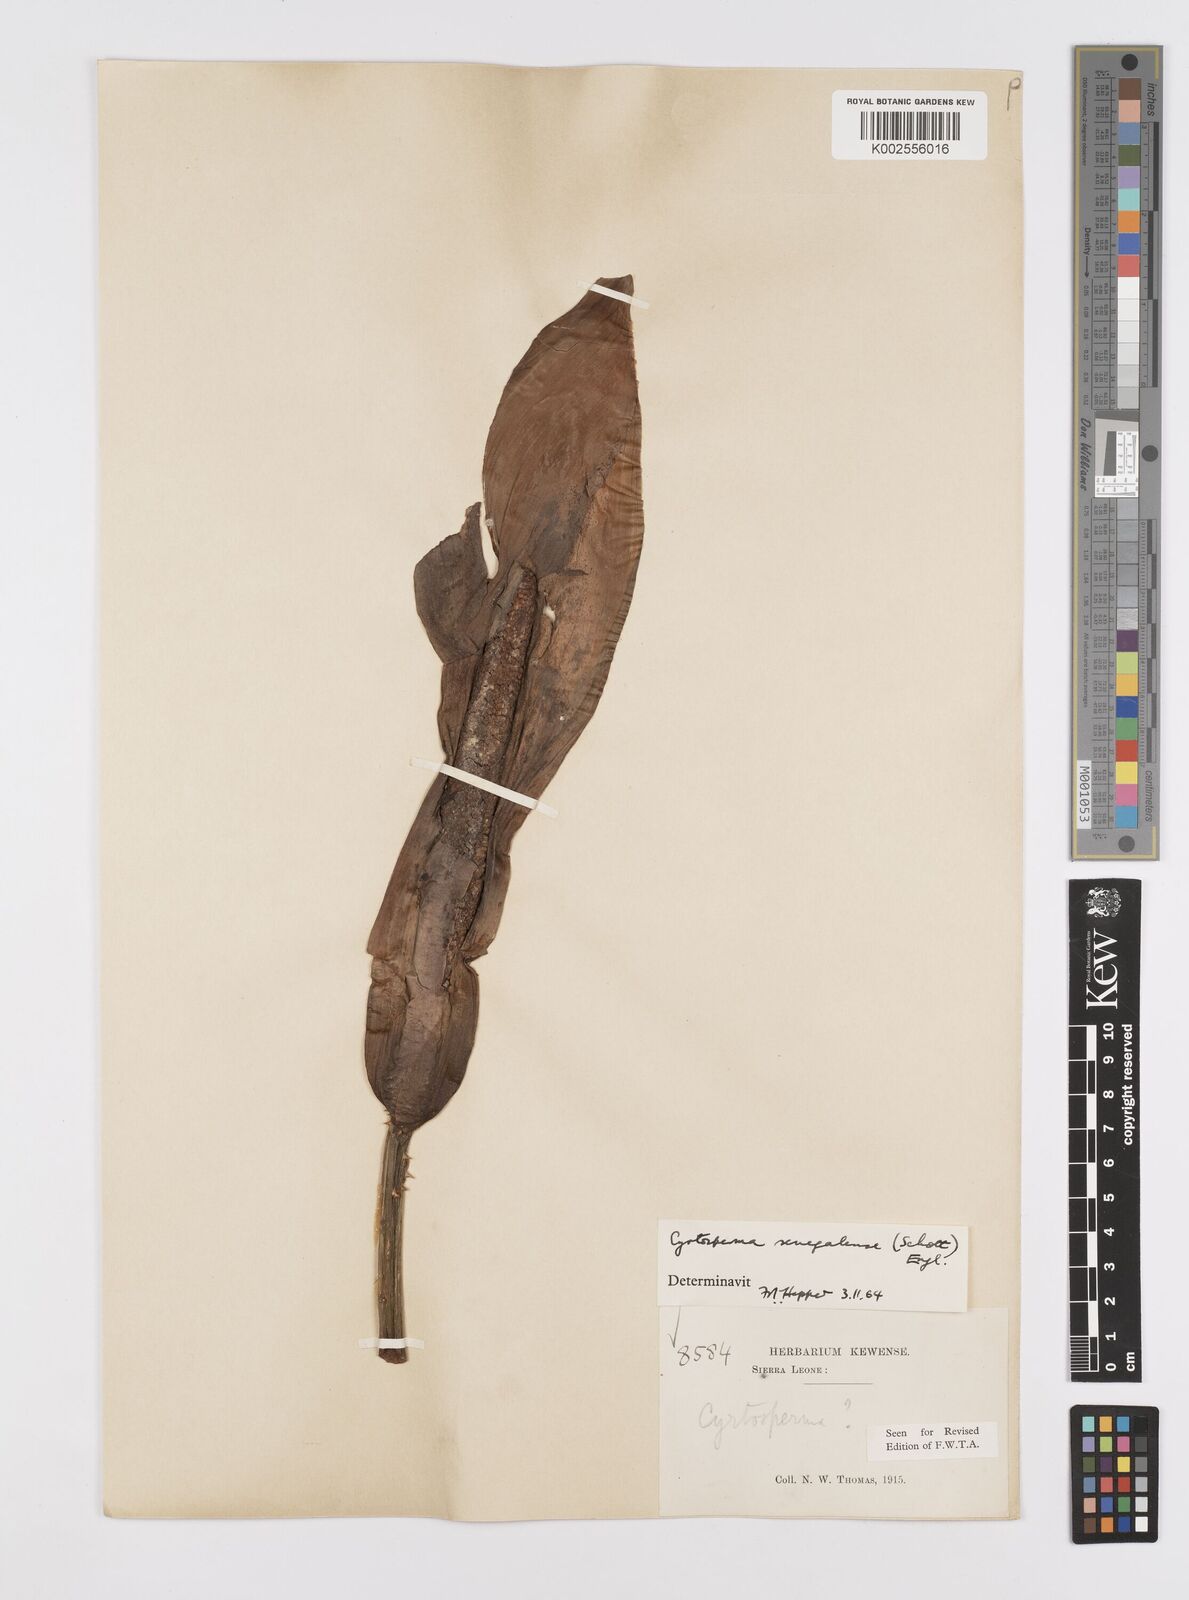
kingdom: Plantae
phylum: Tracheophyta
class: Liliopsida
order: Alismatales
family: Araceae
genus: Lasimorpha
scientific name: Lasimorpha senegalensis
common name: Swamp arum
